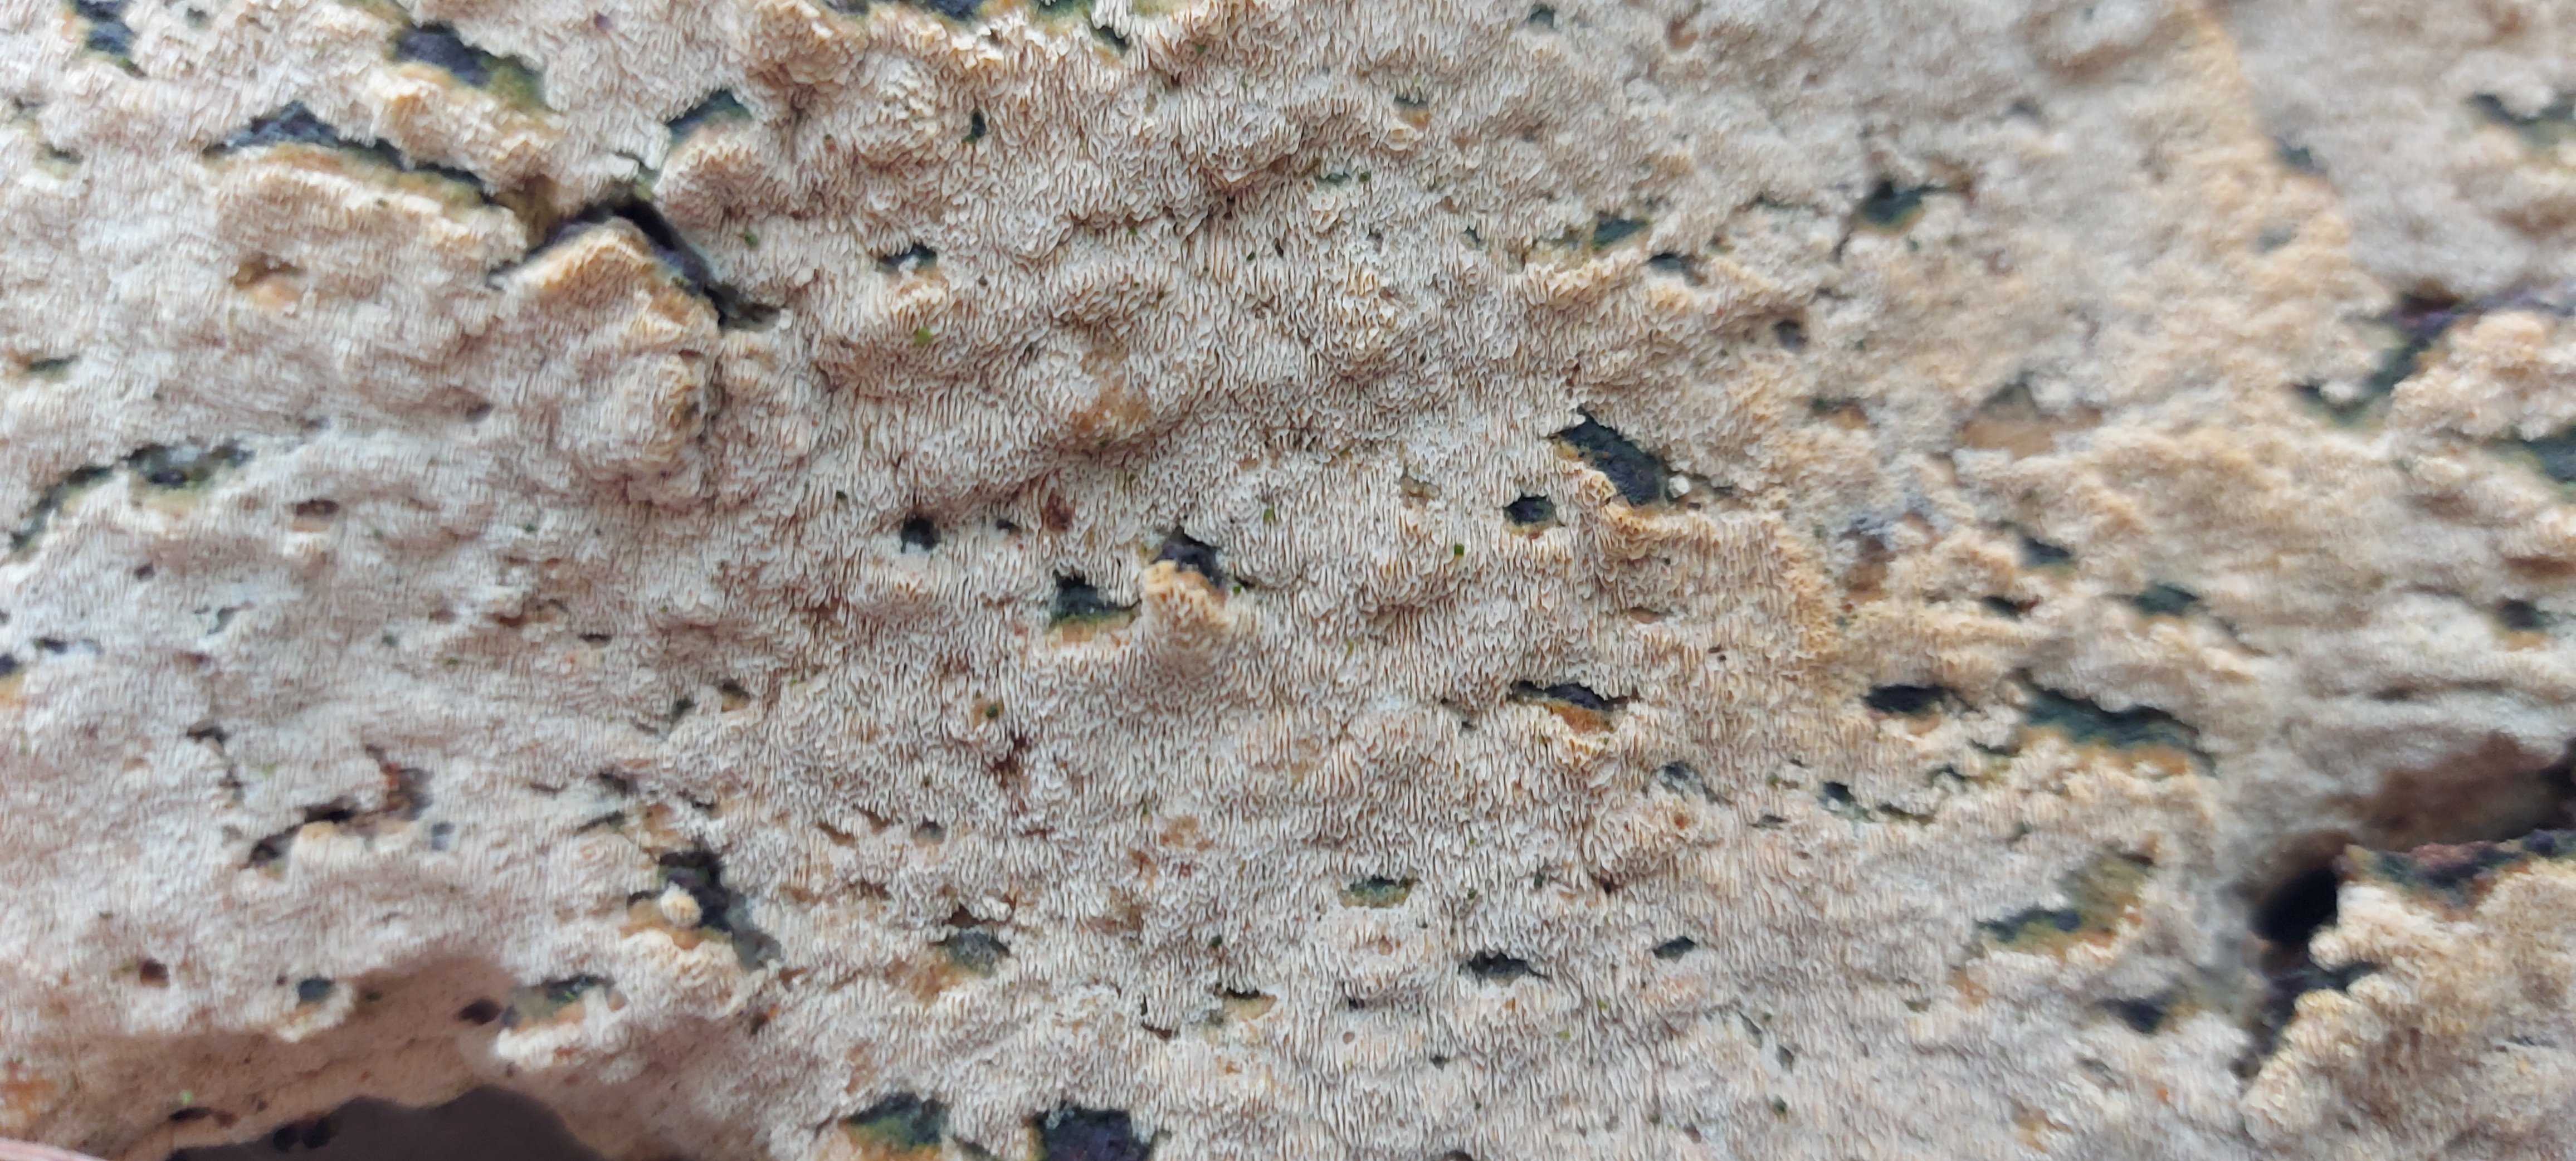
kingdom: Fungi
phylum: Basidiomycota
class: Agaricomycetes
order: Polyporales
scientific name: Polyporales
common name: poresvampordenen
